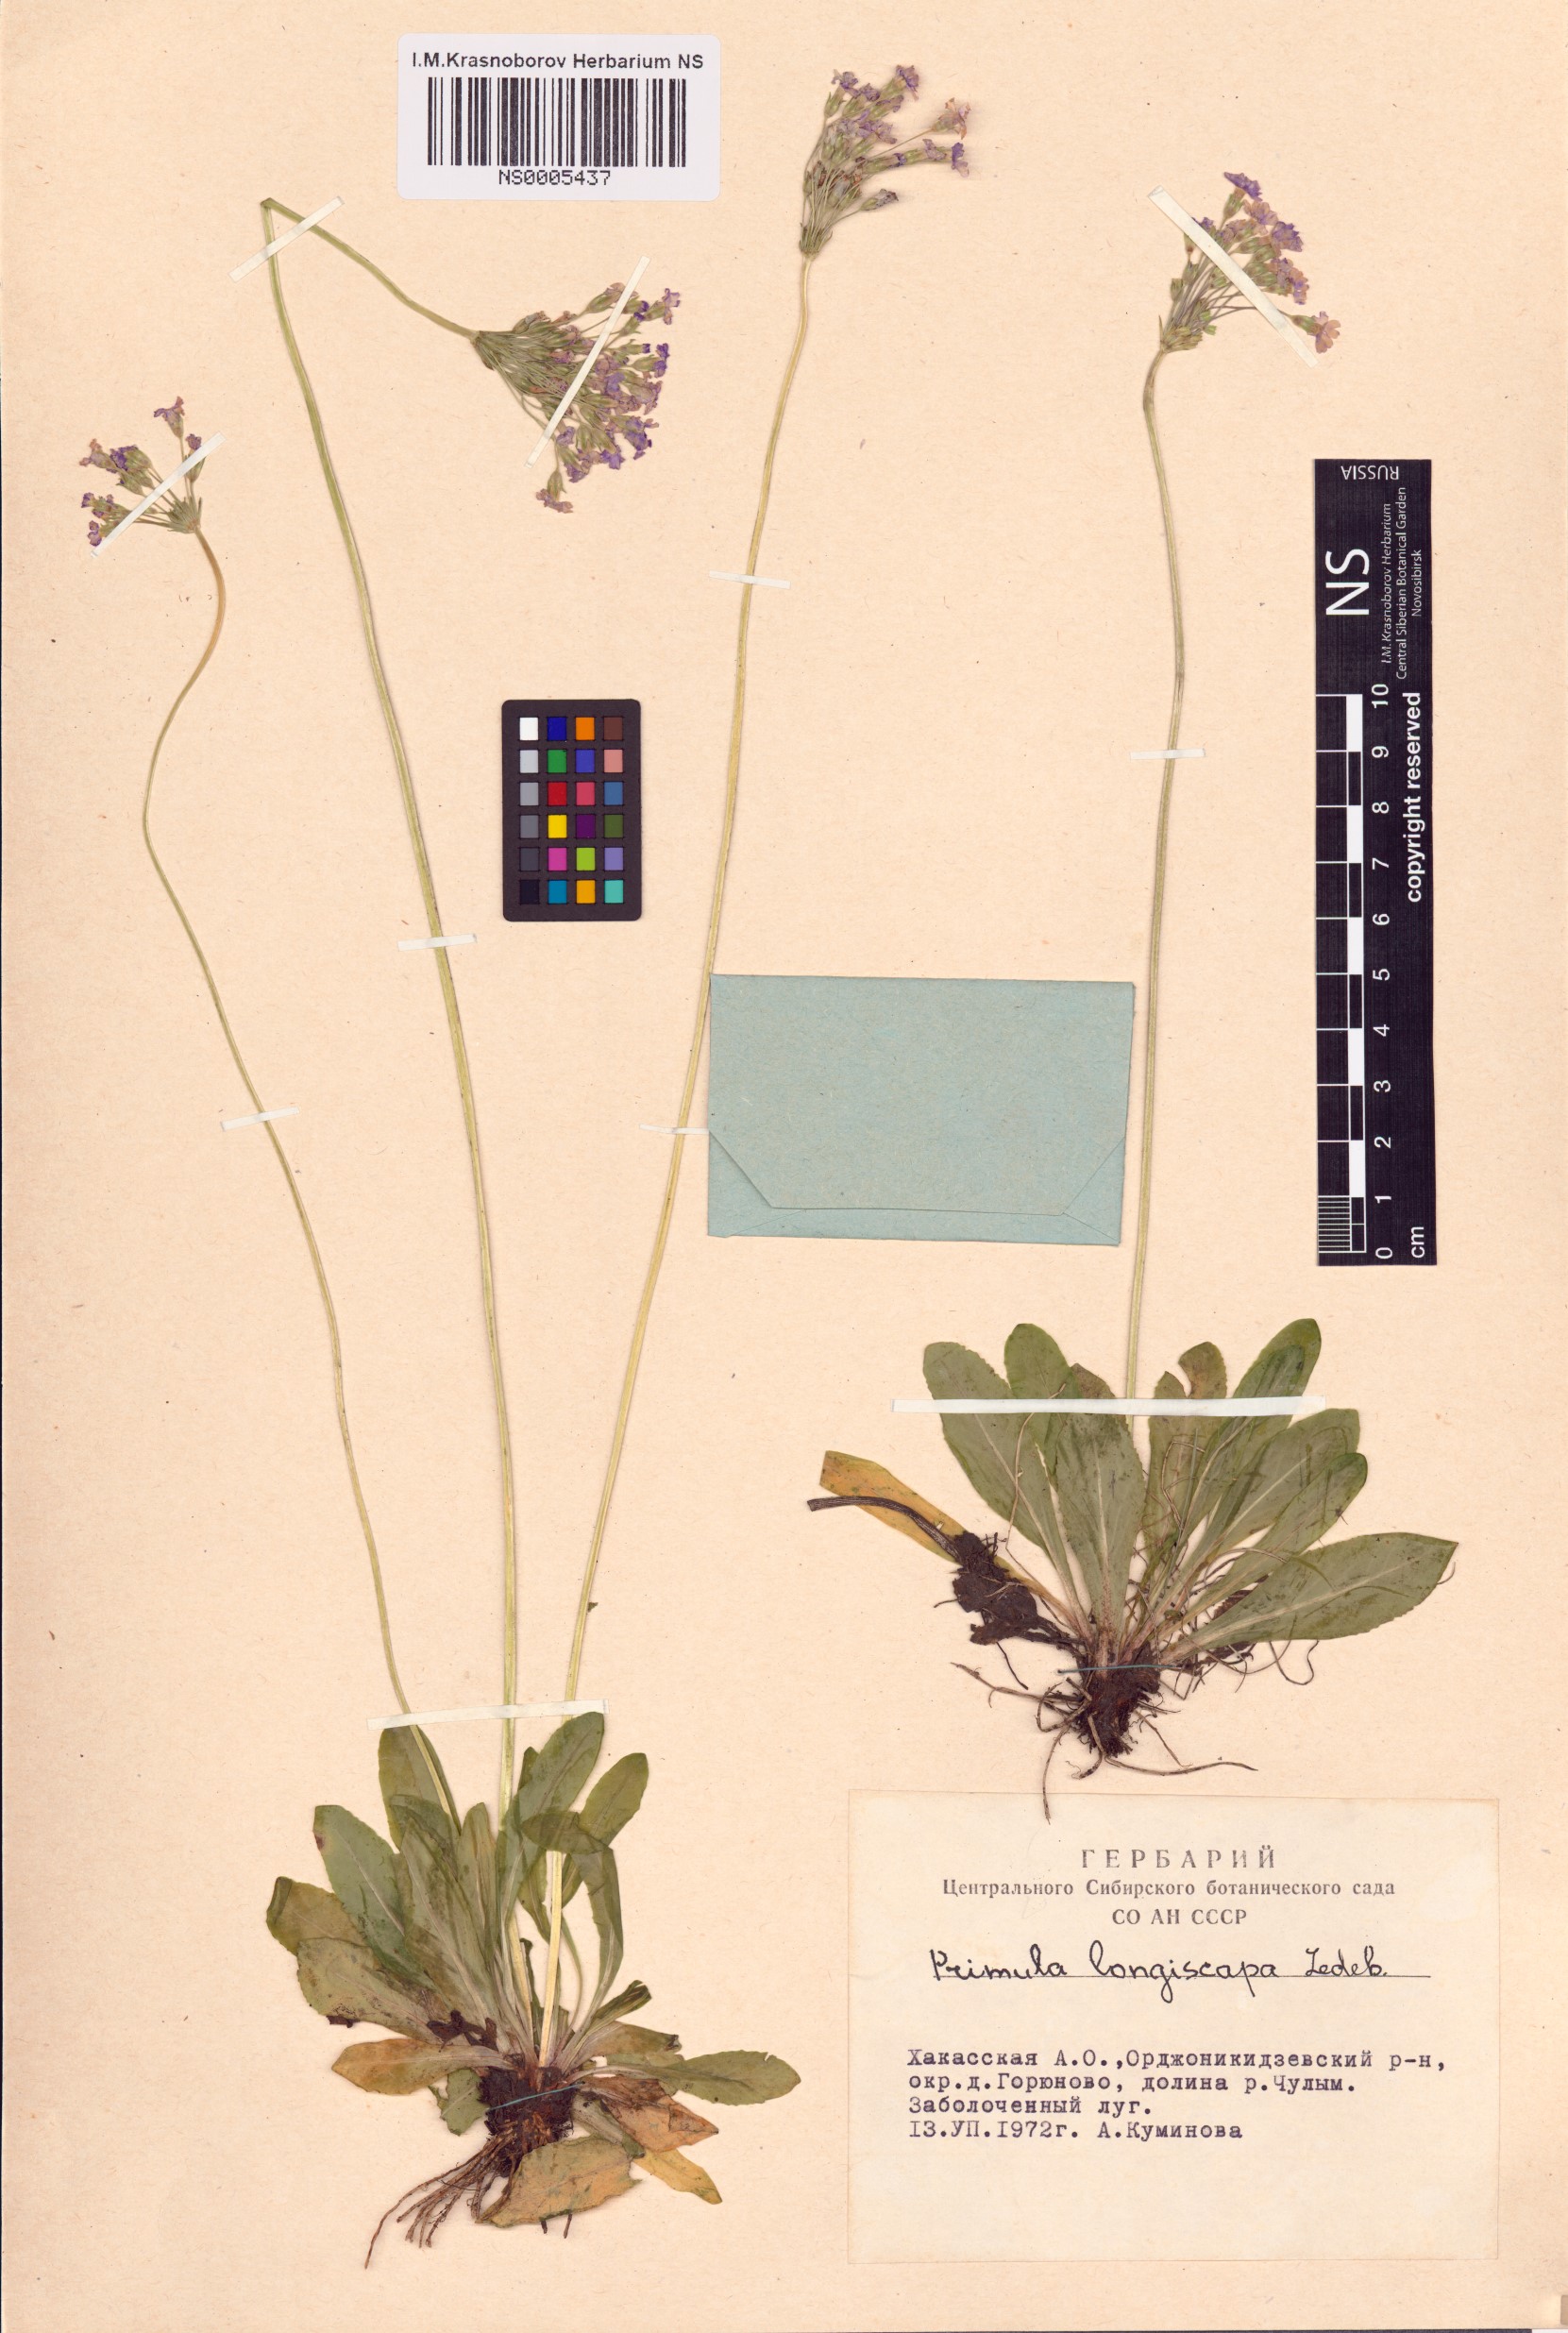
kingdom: Plantae
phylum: Tracheophyta
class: Magnoliopsida
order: Ericales
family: Primulaceae
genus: Primula
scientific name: Primula longiscapa
